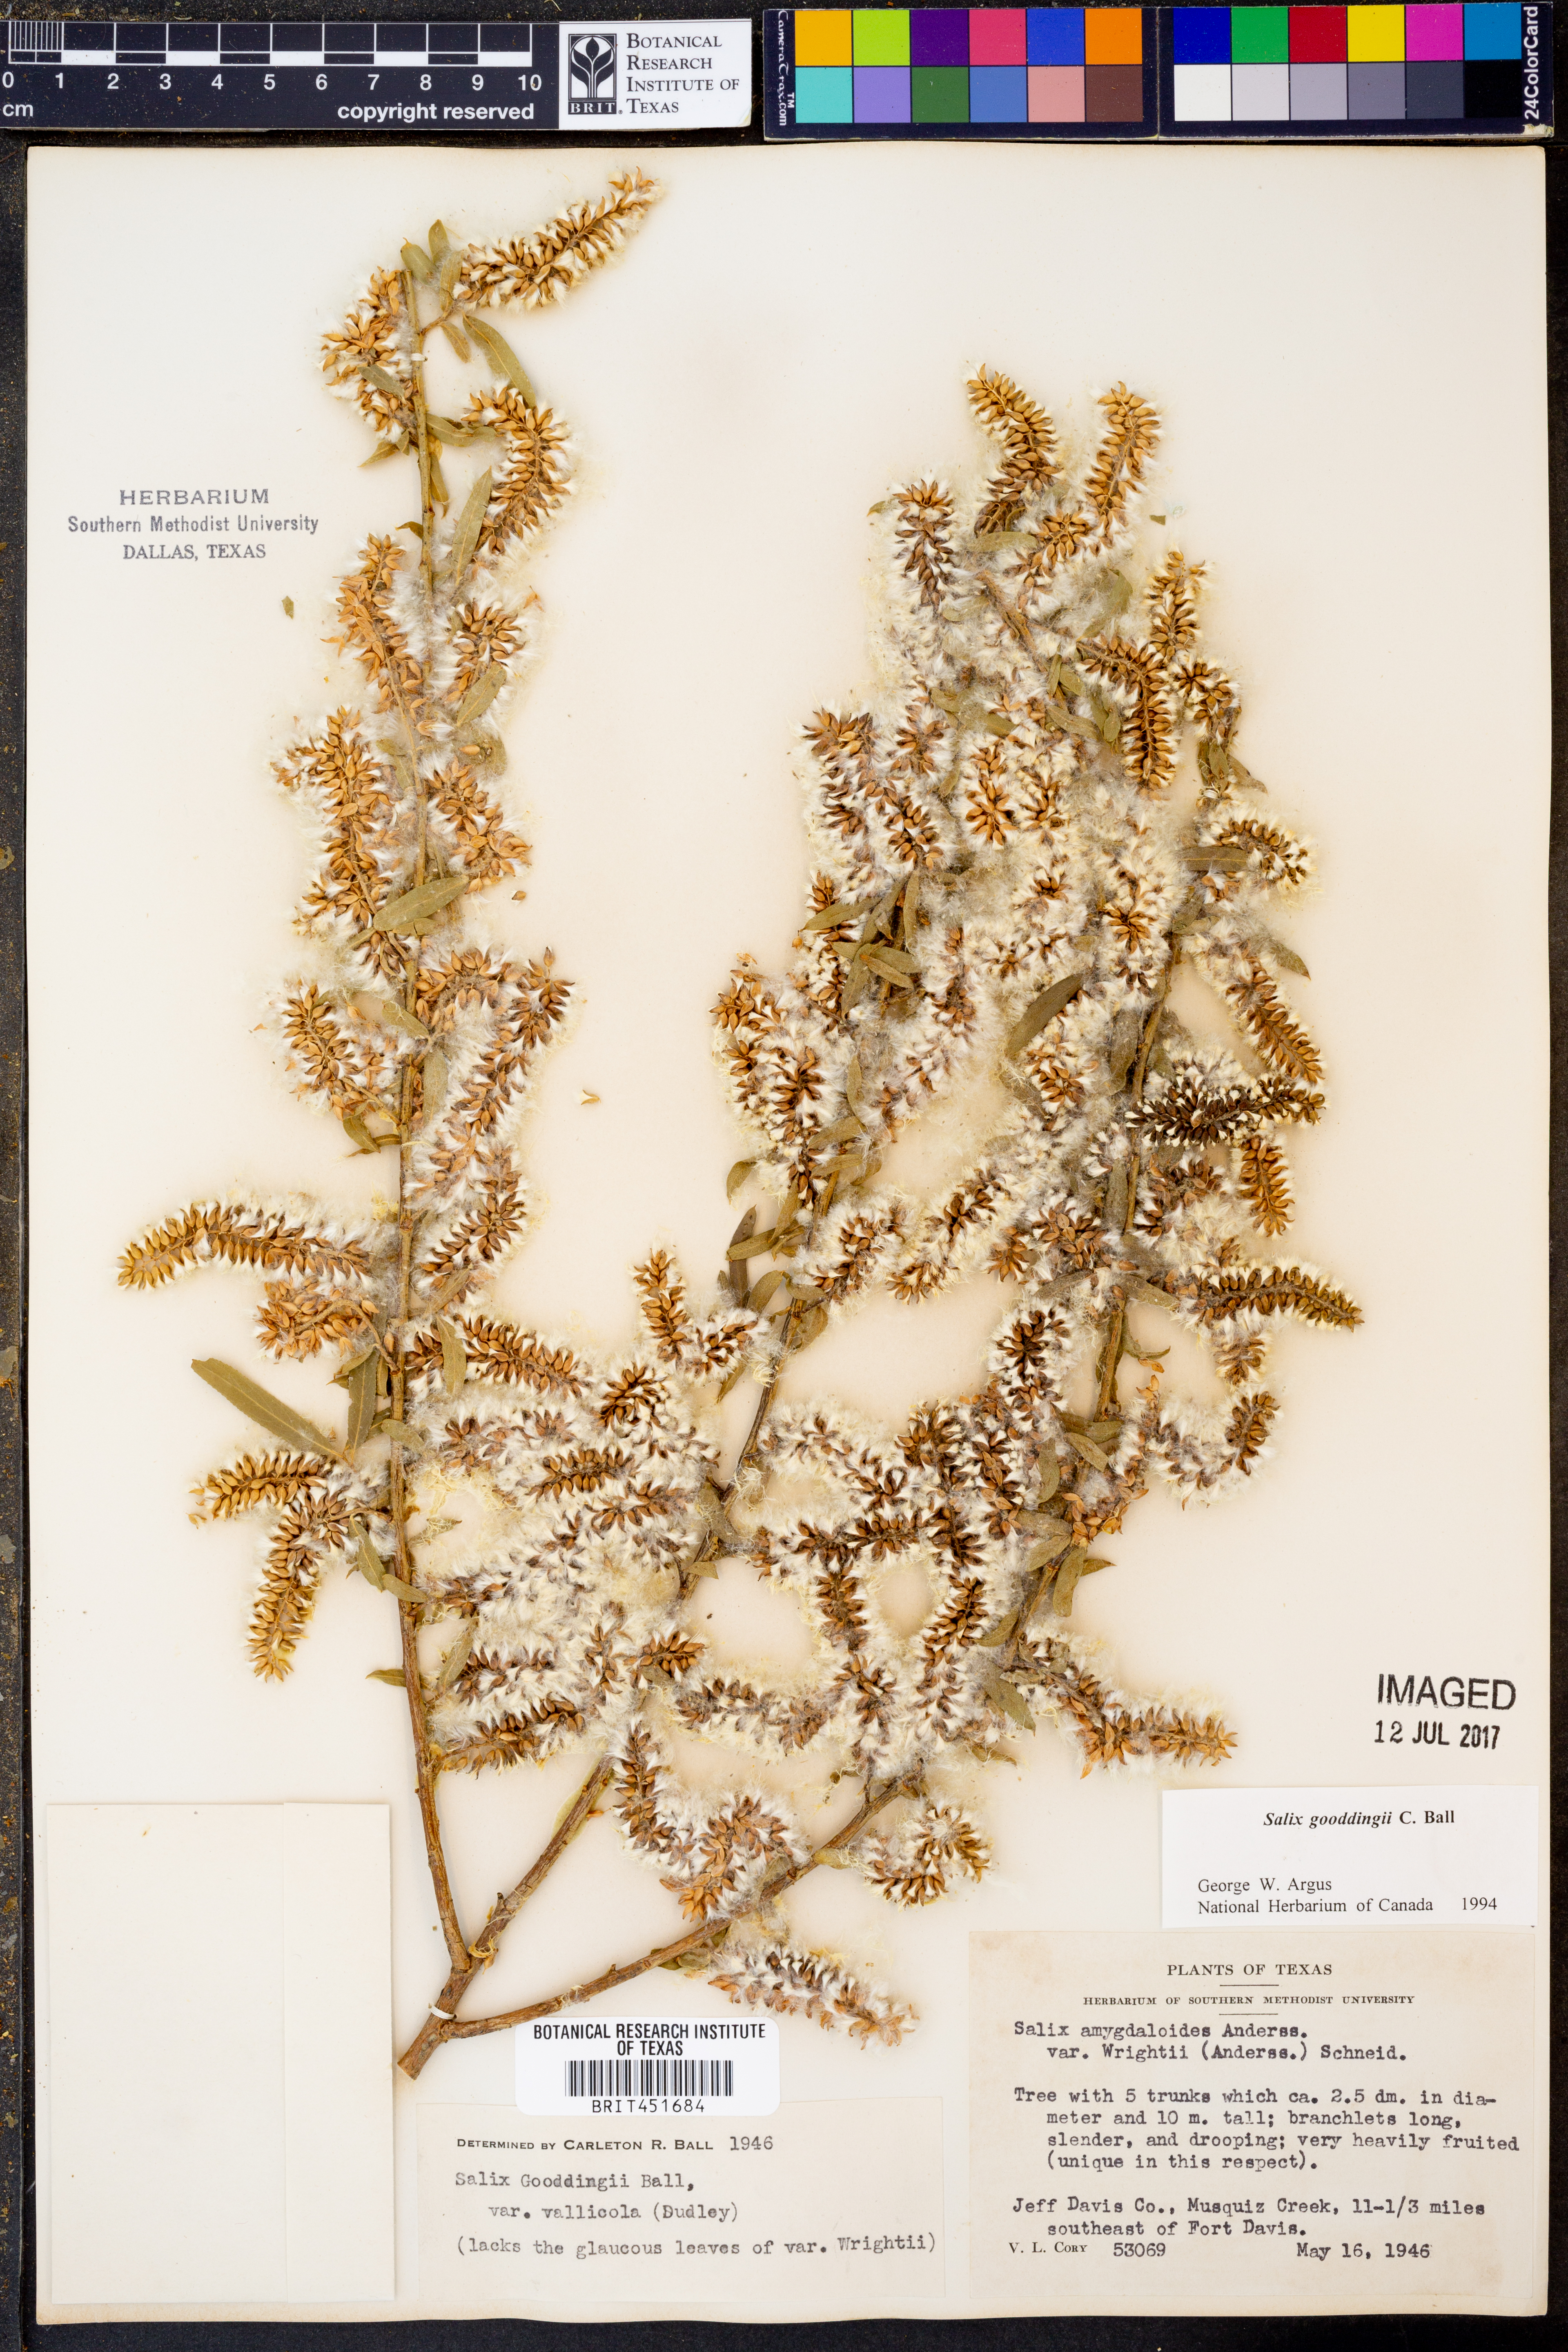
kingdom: Plantae
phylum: Tracheophyta
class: Magnoliopsida
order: Malpighiales
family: Salicaceae
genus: Salix
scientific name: Salix gooddingii
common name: Goodding's willow
